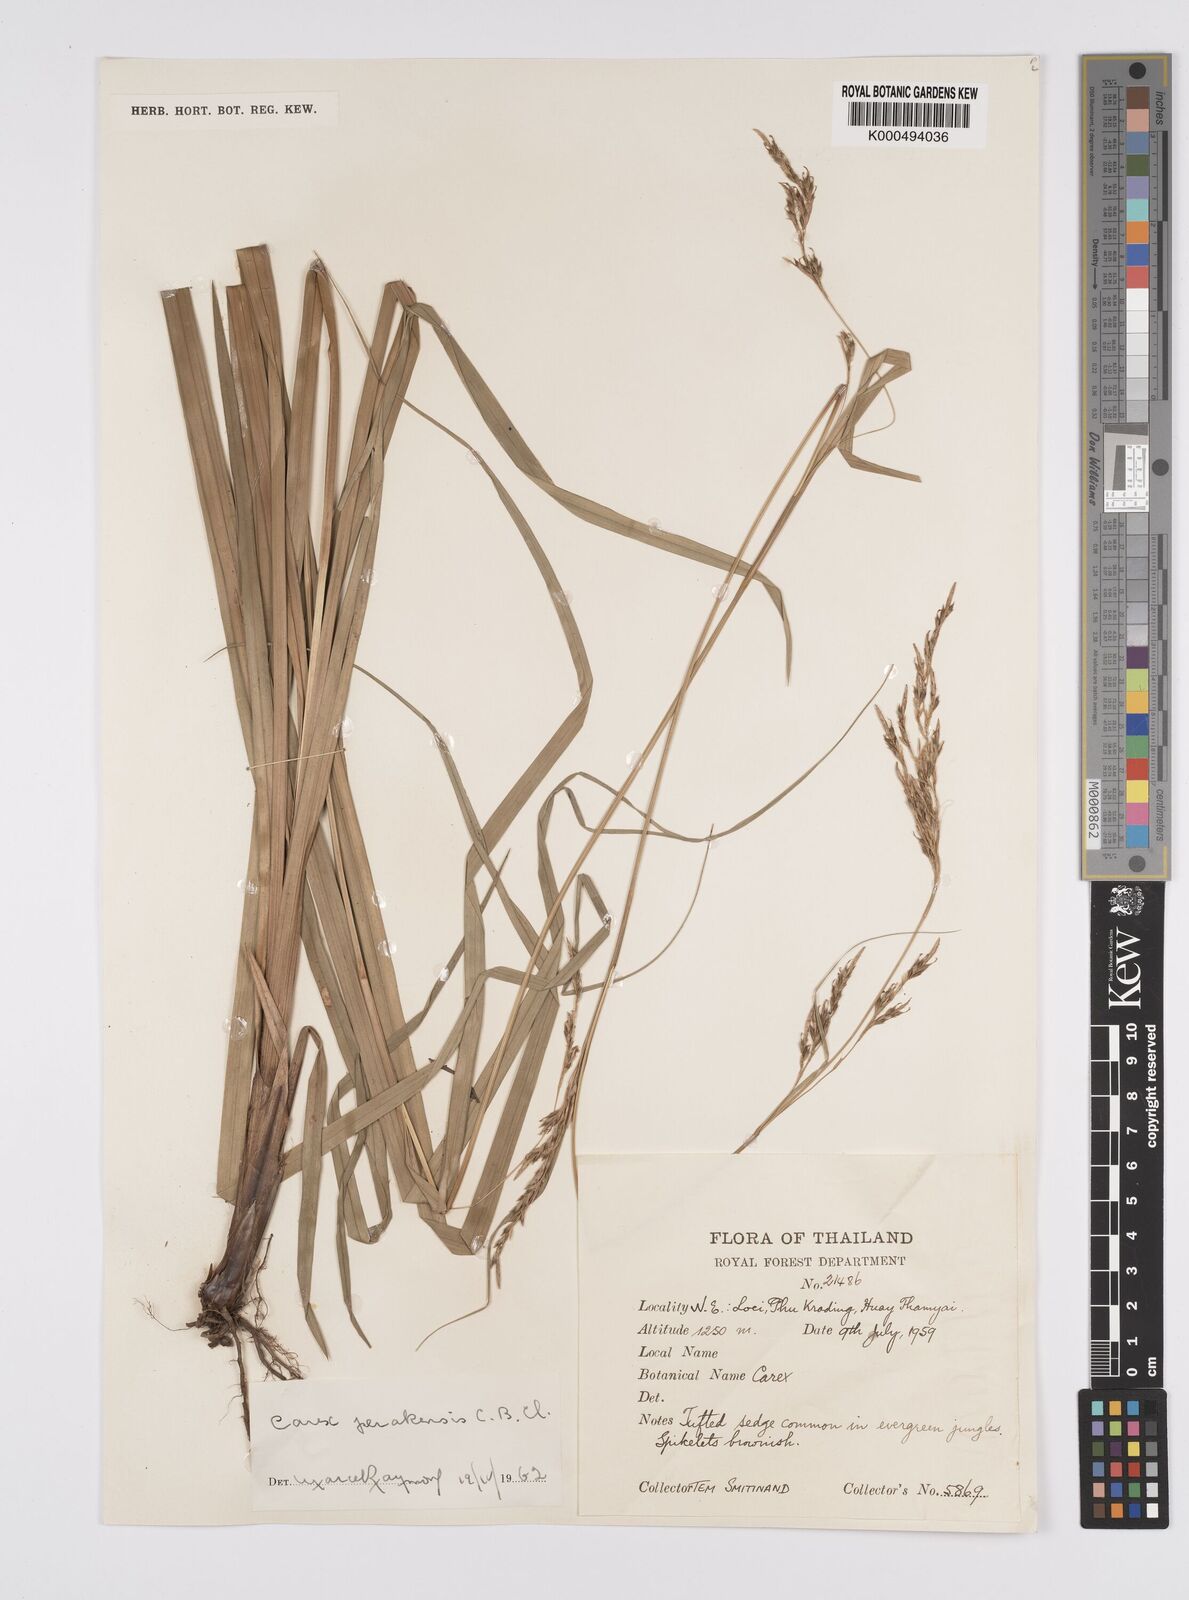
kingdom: Plantae
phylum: Tracheophyta
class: Liliopsida
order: Poales
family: Cyperaceae
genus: Carex
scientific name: Carex perakensis
